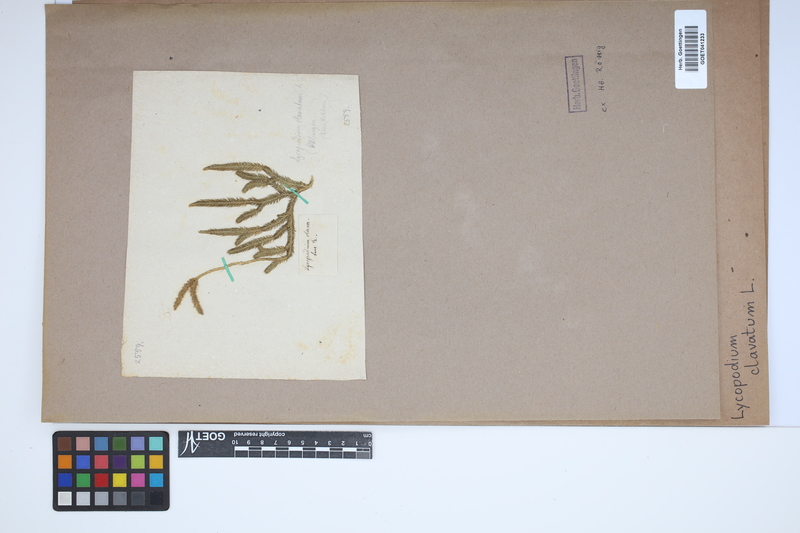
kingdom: Plantae
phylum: Tracheophyta
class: Lycopodiopsida
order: Lycopodiales
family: Lycopodiaceae
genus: Lycopodium
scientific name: Lycopodium clavatum
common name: Stag's-horn clubmoss
